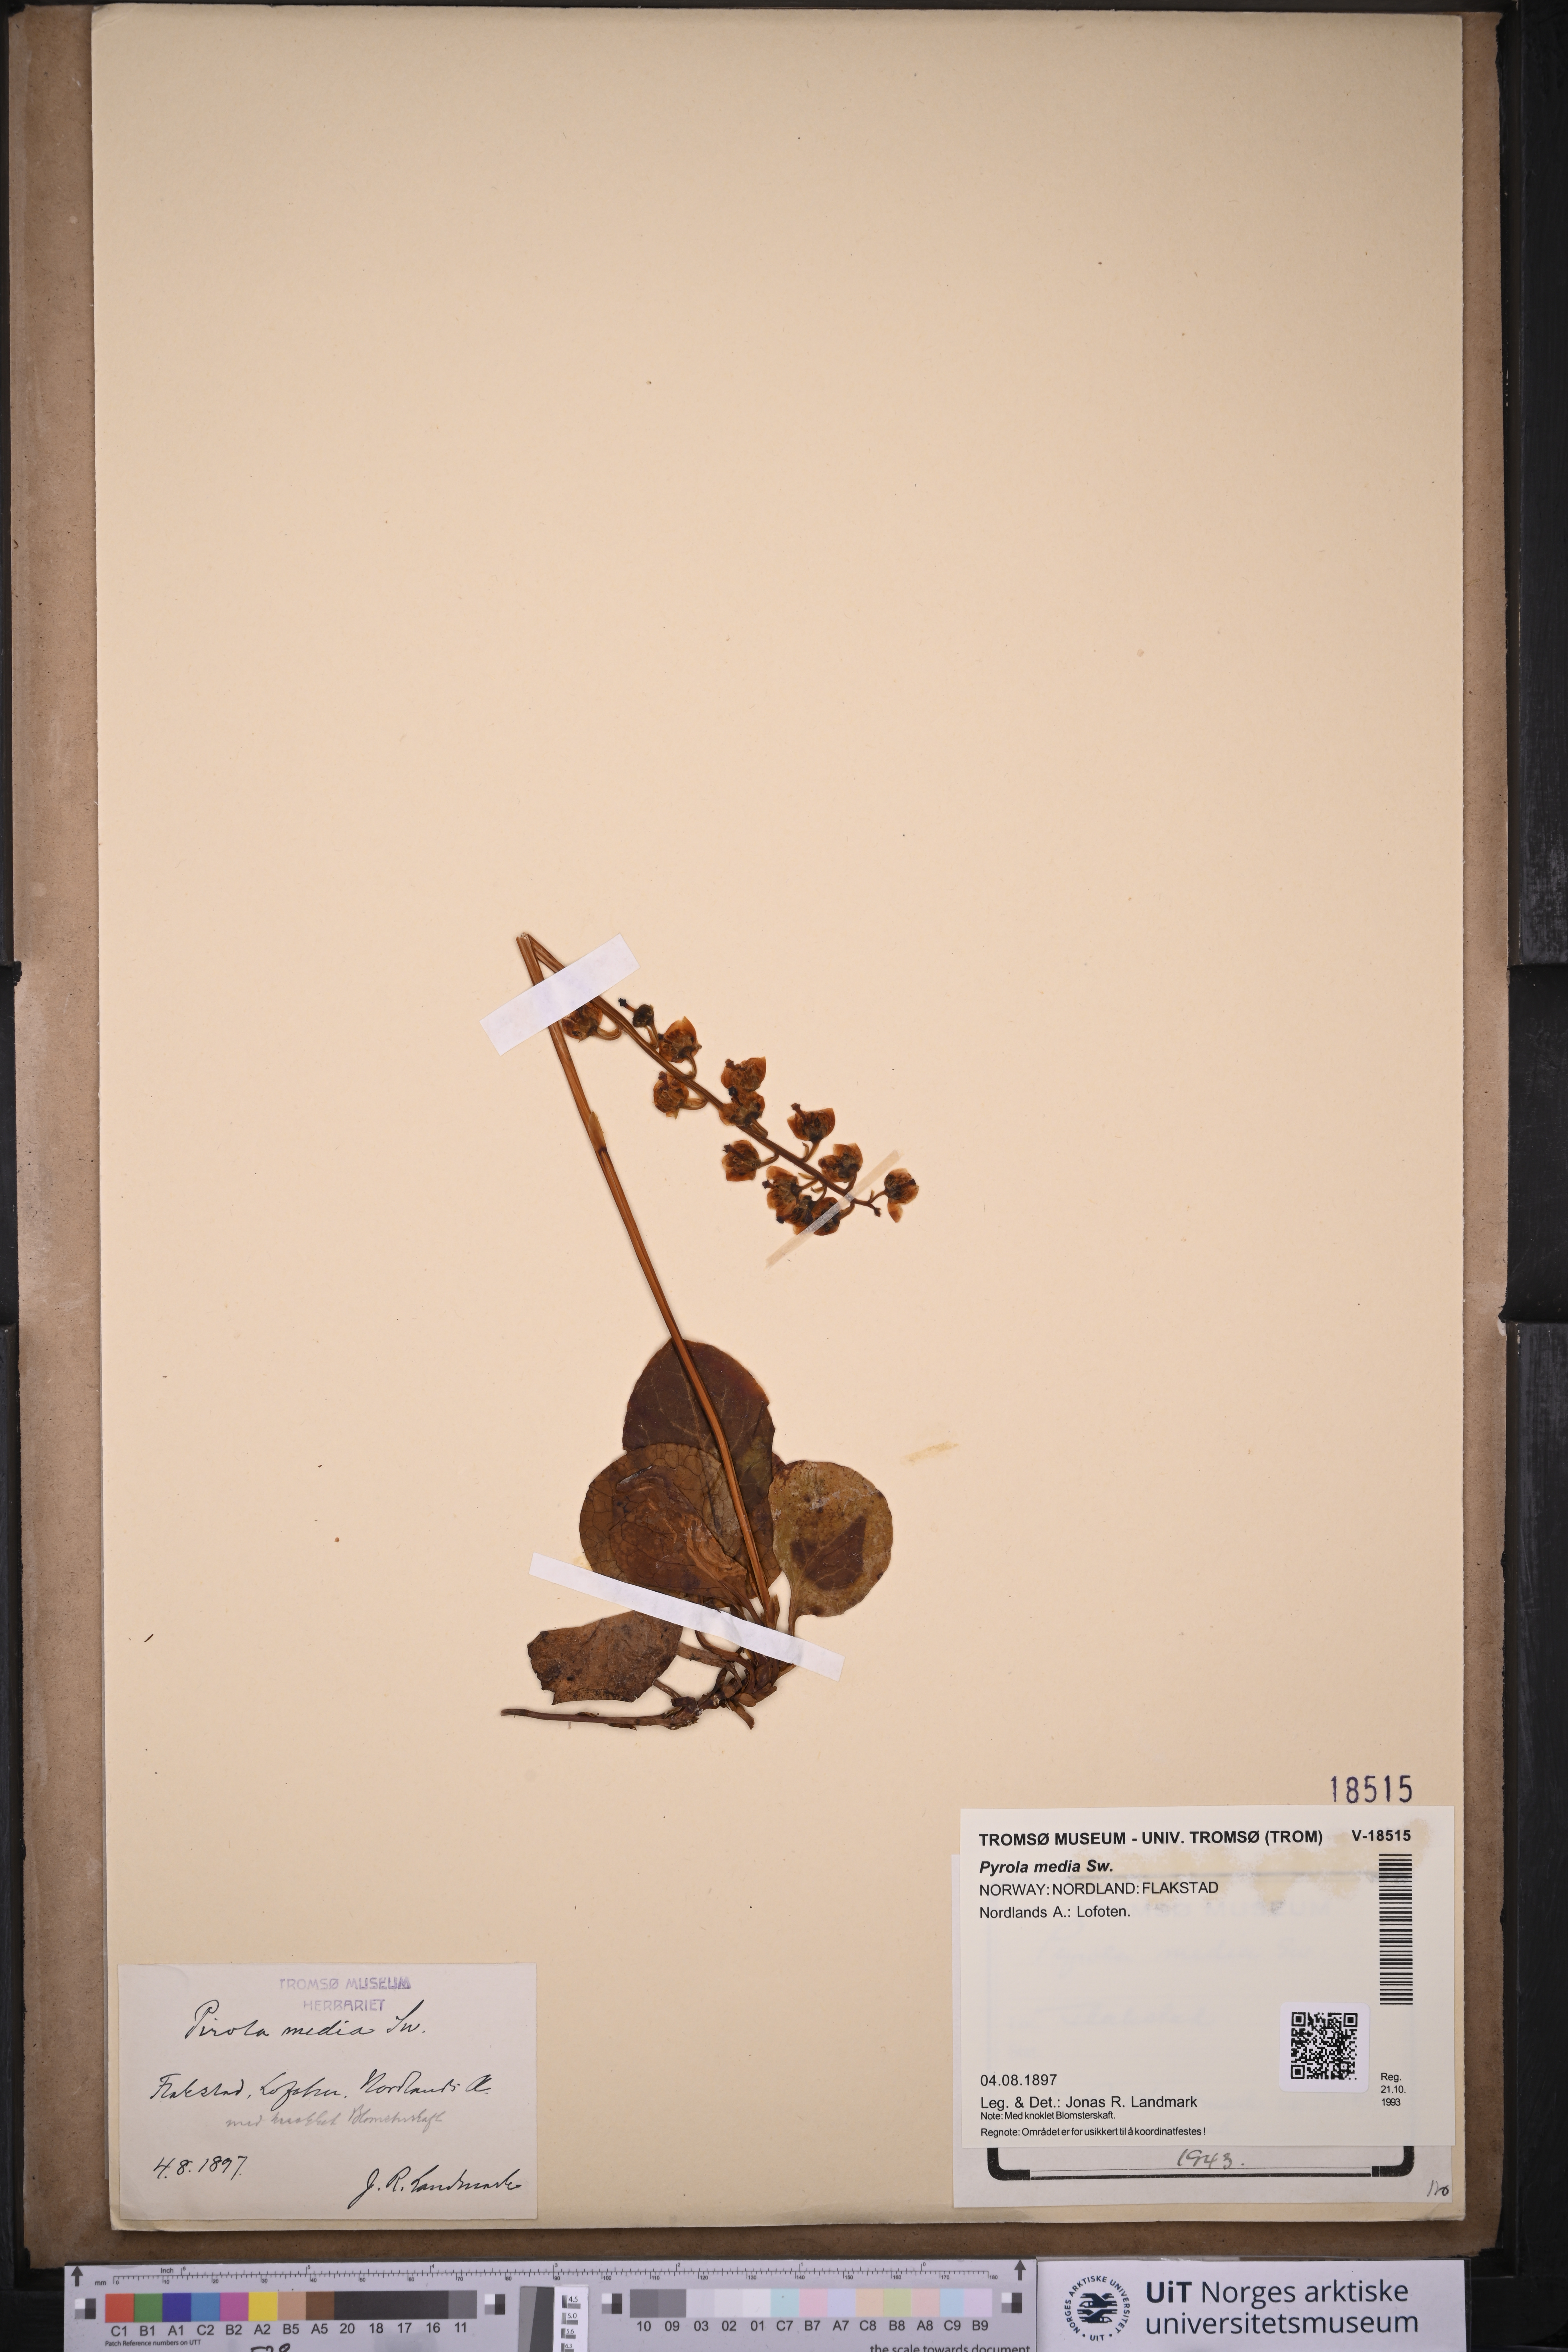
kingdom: Plantae
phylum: Tracheophyta
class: Magnoliopsida
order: Ericales
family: Ericaceae
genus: Pyrola
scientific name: Pyrola media
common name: Intermediate wintergreen
